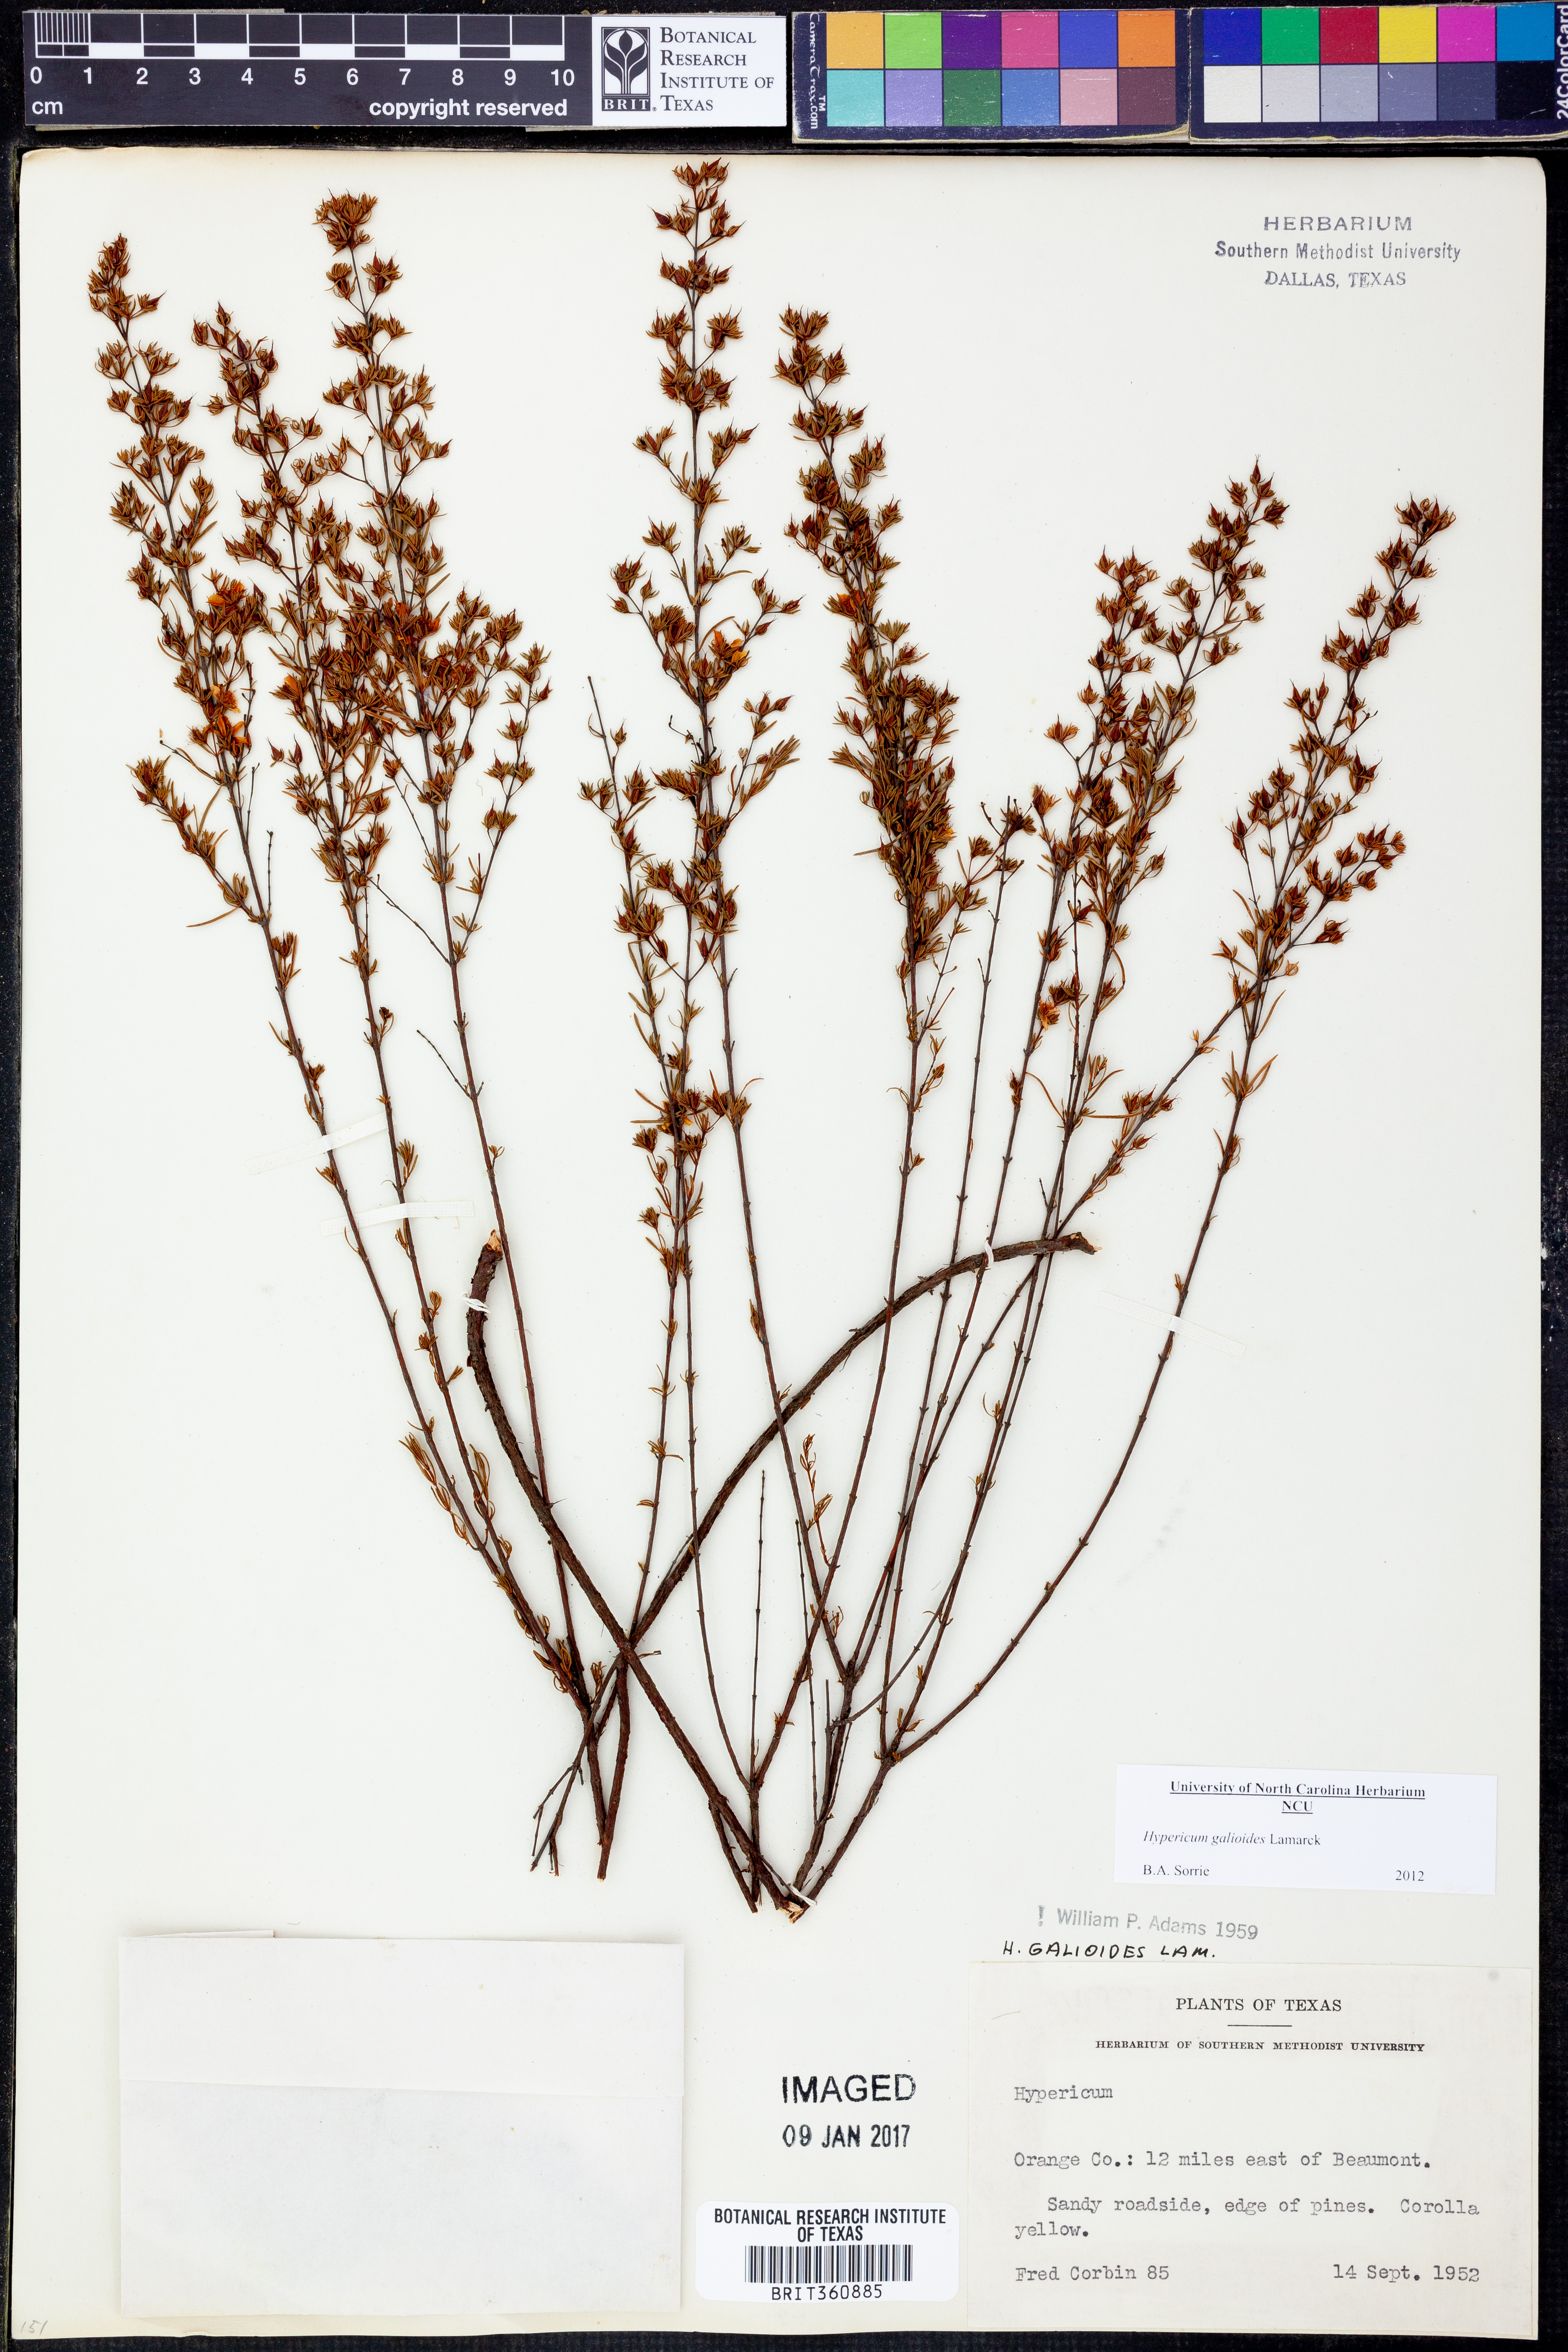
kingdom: Plantae
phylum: Tracheophyta
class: Magnoliopsida
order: Malpighiales
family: Hypericaceae
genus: Hypericum
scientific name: Hypericum galioides
